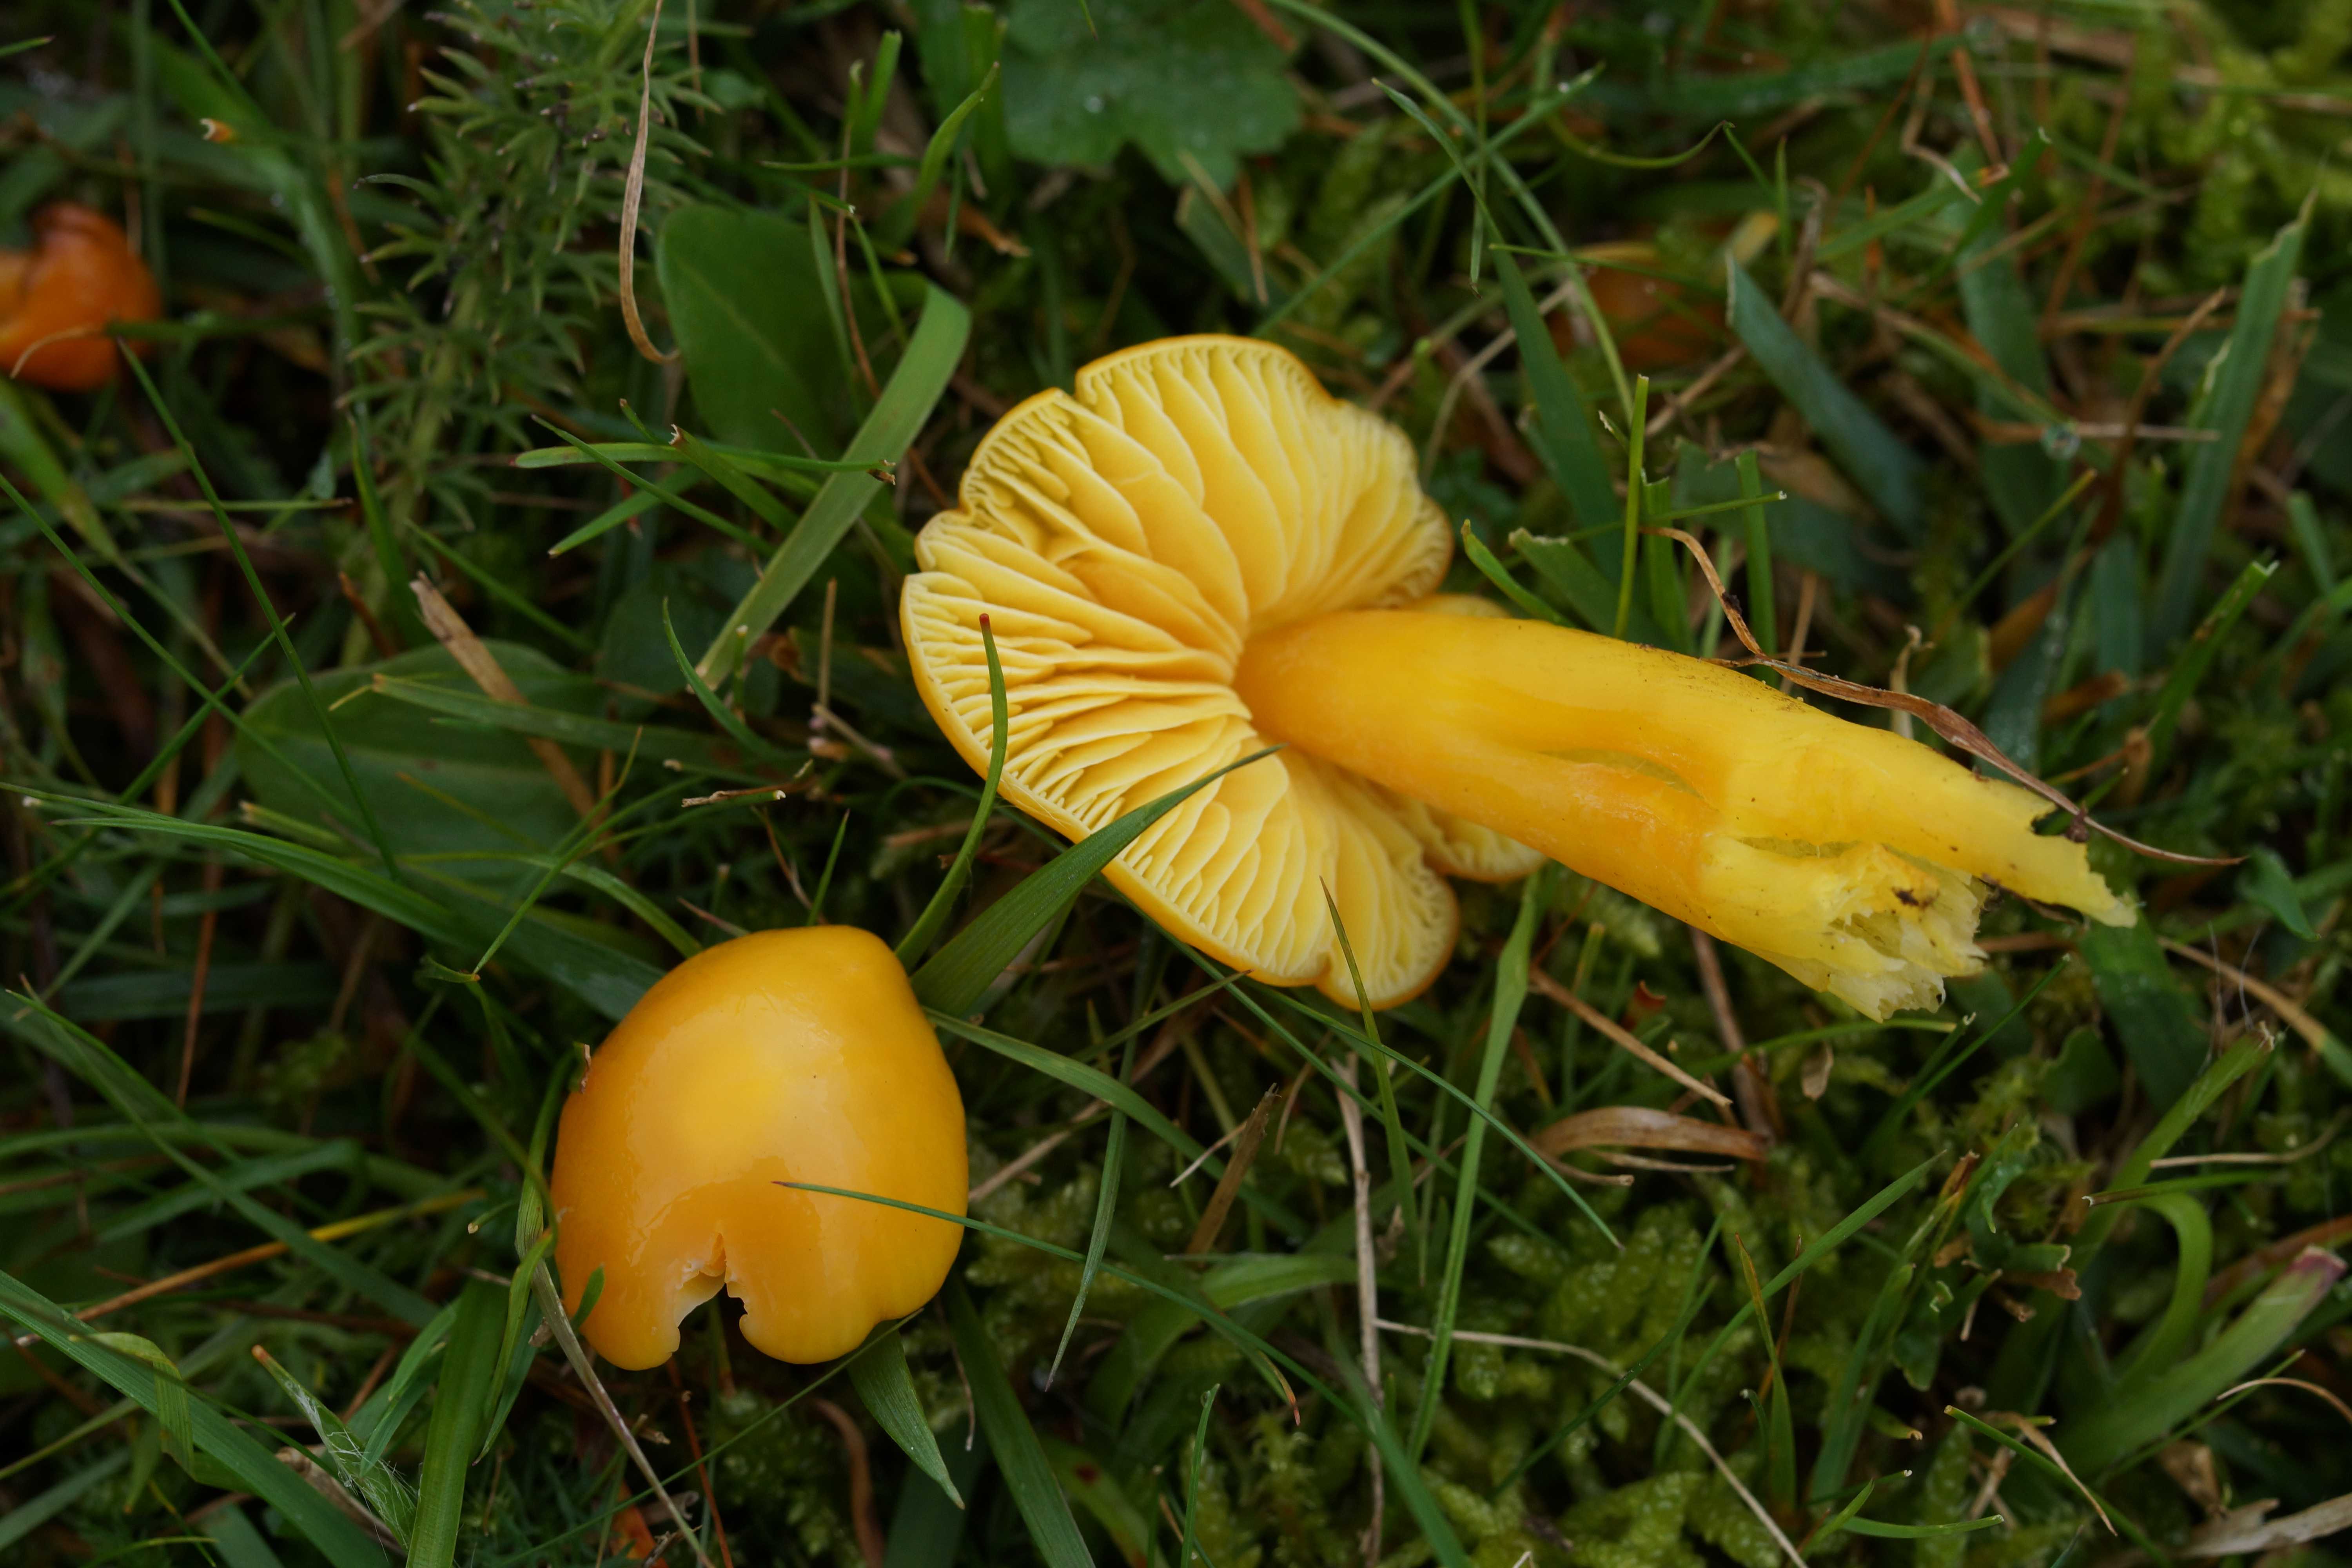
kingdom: Fungi
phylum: Basidiomycota
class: Agaricomycetes
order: Agaricales
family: Hygrophoraceae
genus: Hygrocybe
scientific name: Hygrocybe chlorophana
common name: gul vokshat
